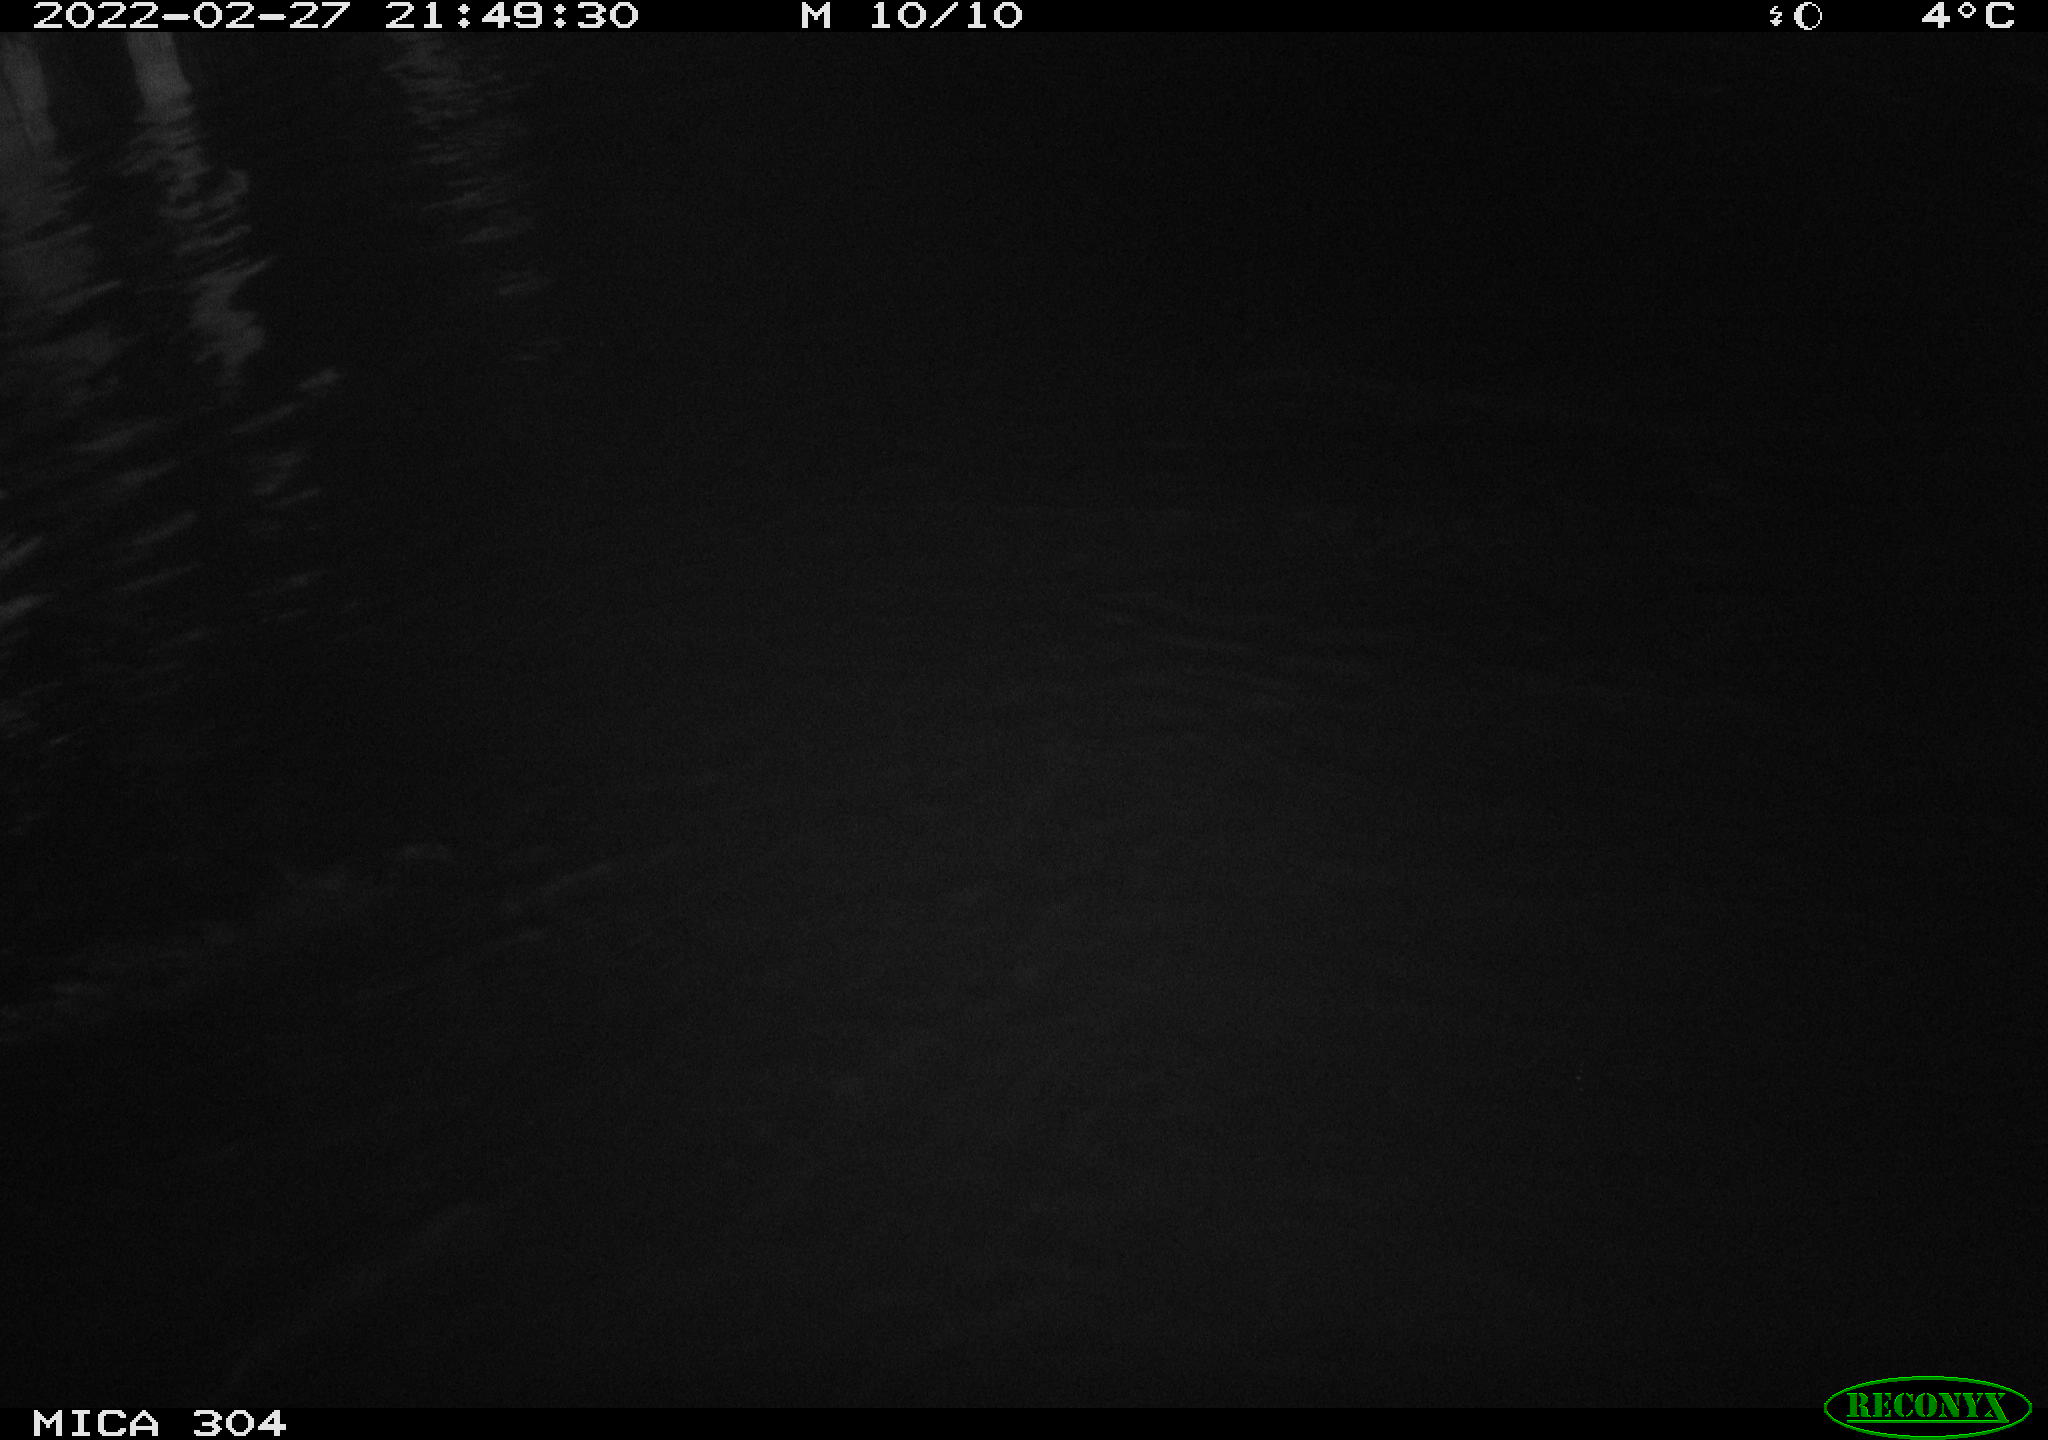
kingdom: Animalia
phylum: Chordata
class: Aves
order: Anseriformes
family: Anatidae
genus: Anas
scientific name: Anas platyrhynchos
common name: Mallard
